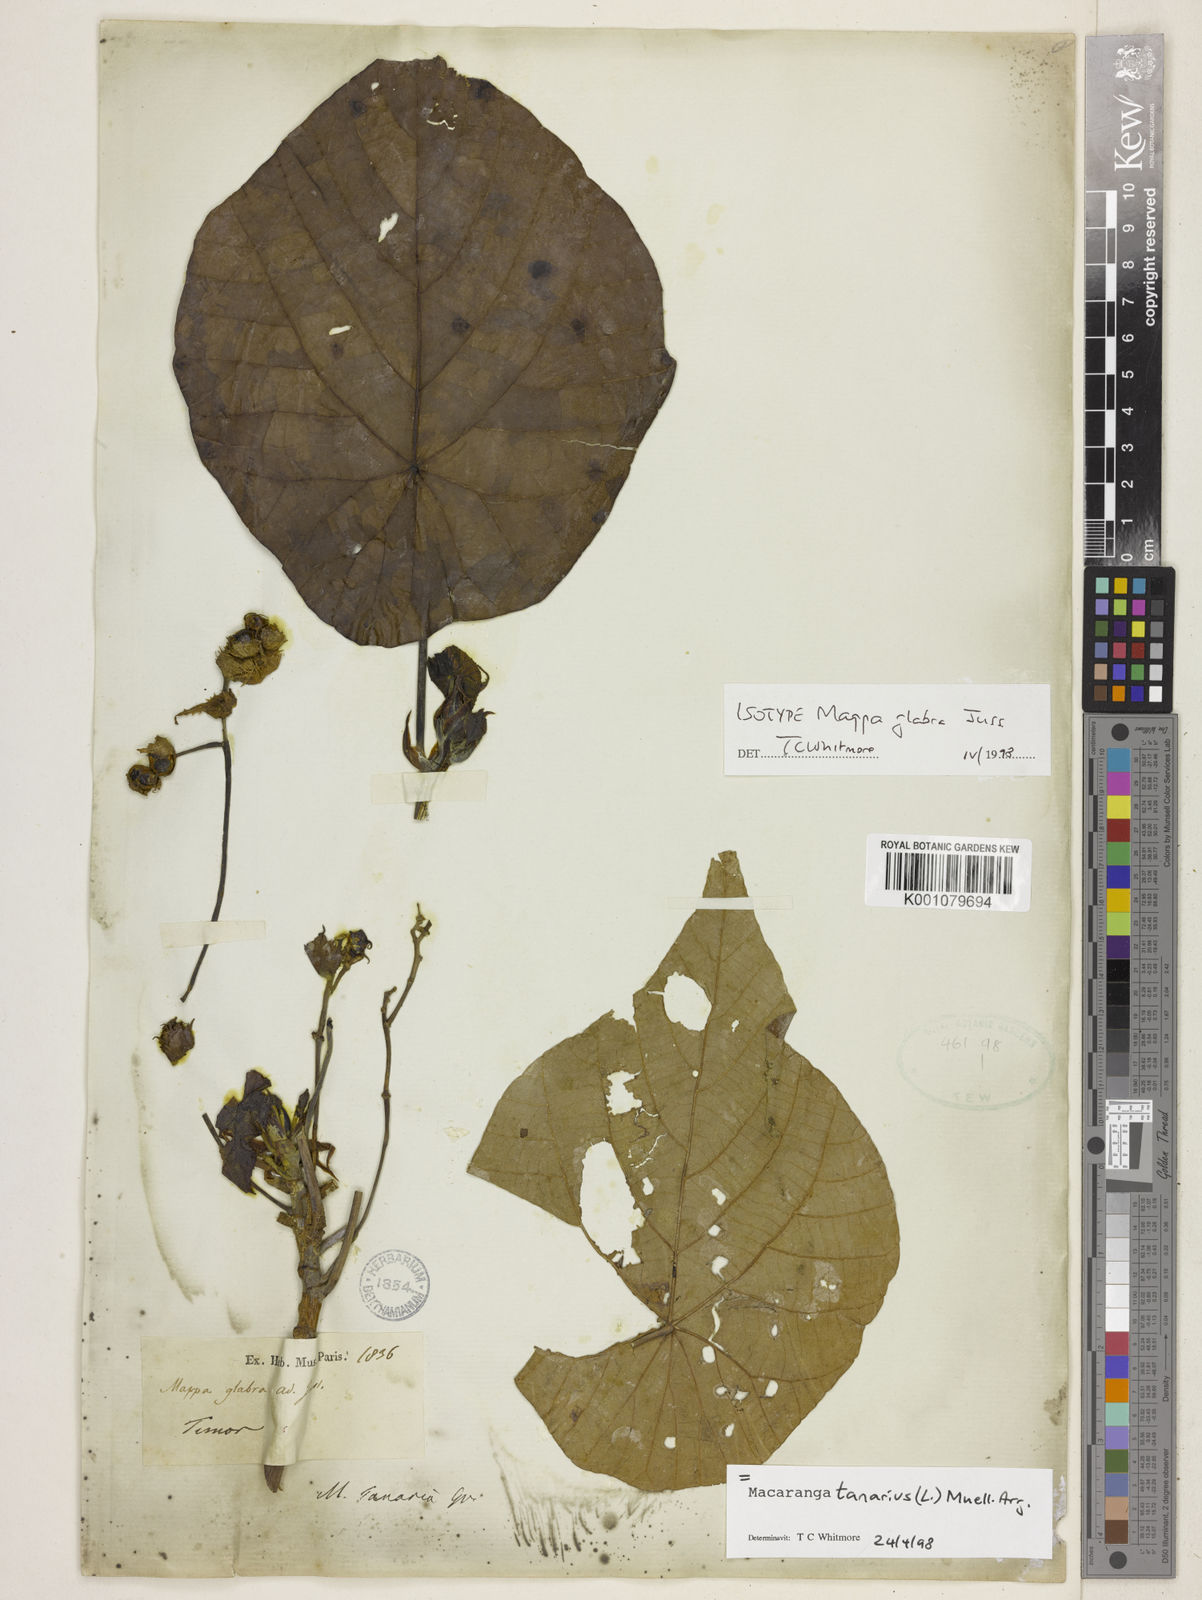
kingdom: Plantae
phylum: Tracheophyta
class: Magnoliopsida
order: Malpighiales
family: Euphorbiaceae
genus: Macaranga
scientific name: Macaranga tanarius
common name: Parasol leaf tree
